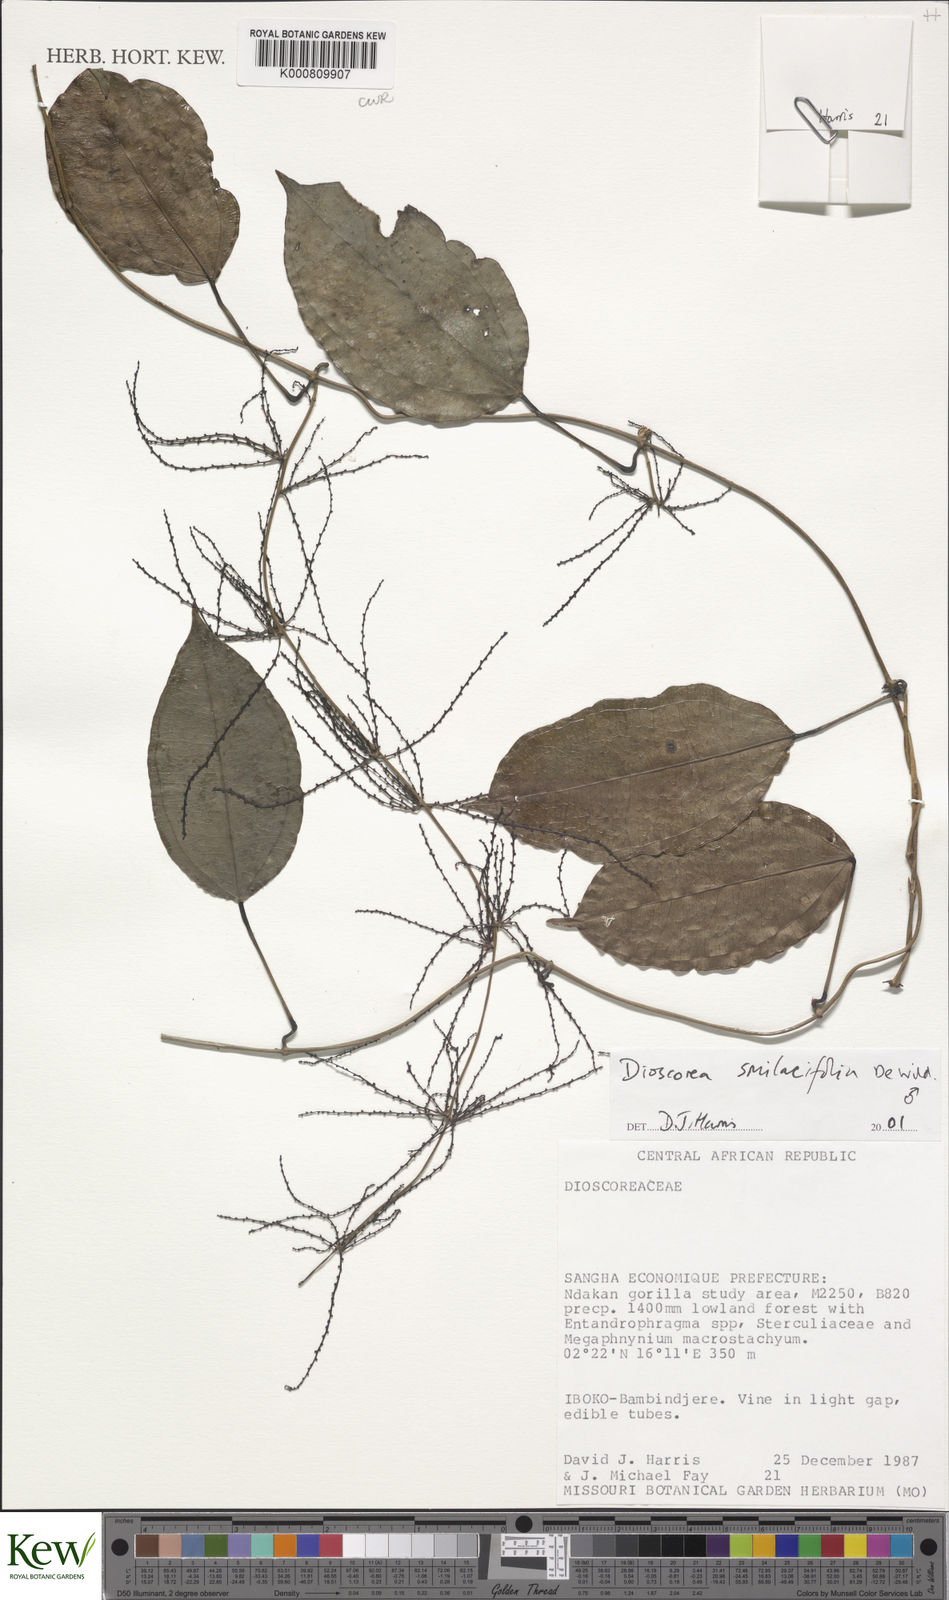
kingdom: Plantae
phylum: Tracheophyta
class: Liliopsida
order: Dioscoreales
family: Dioscoreaceae
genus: Dioscorea
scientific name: Dioscorea smilacifolia
